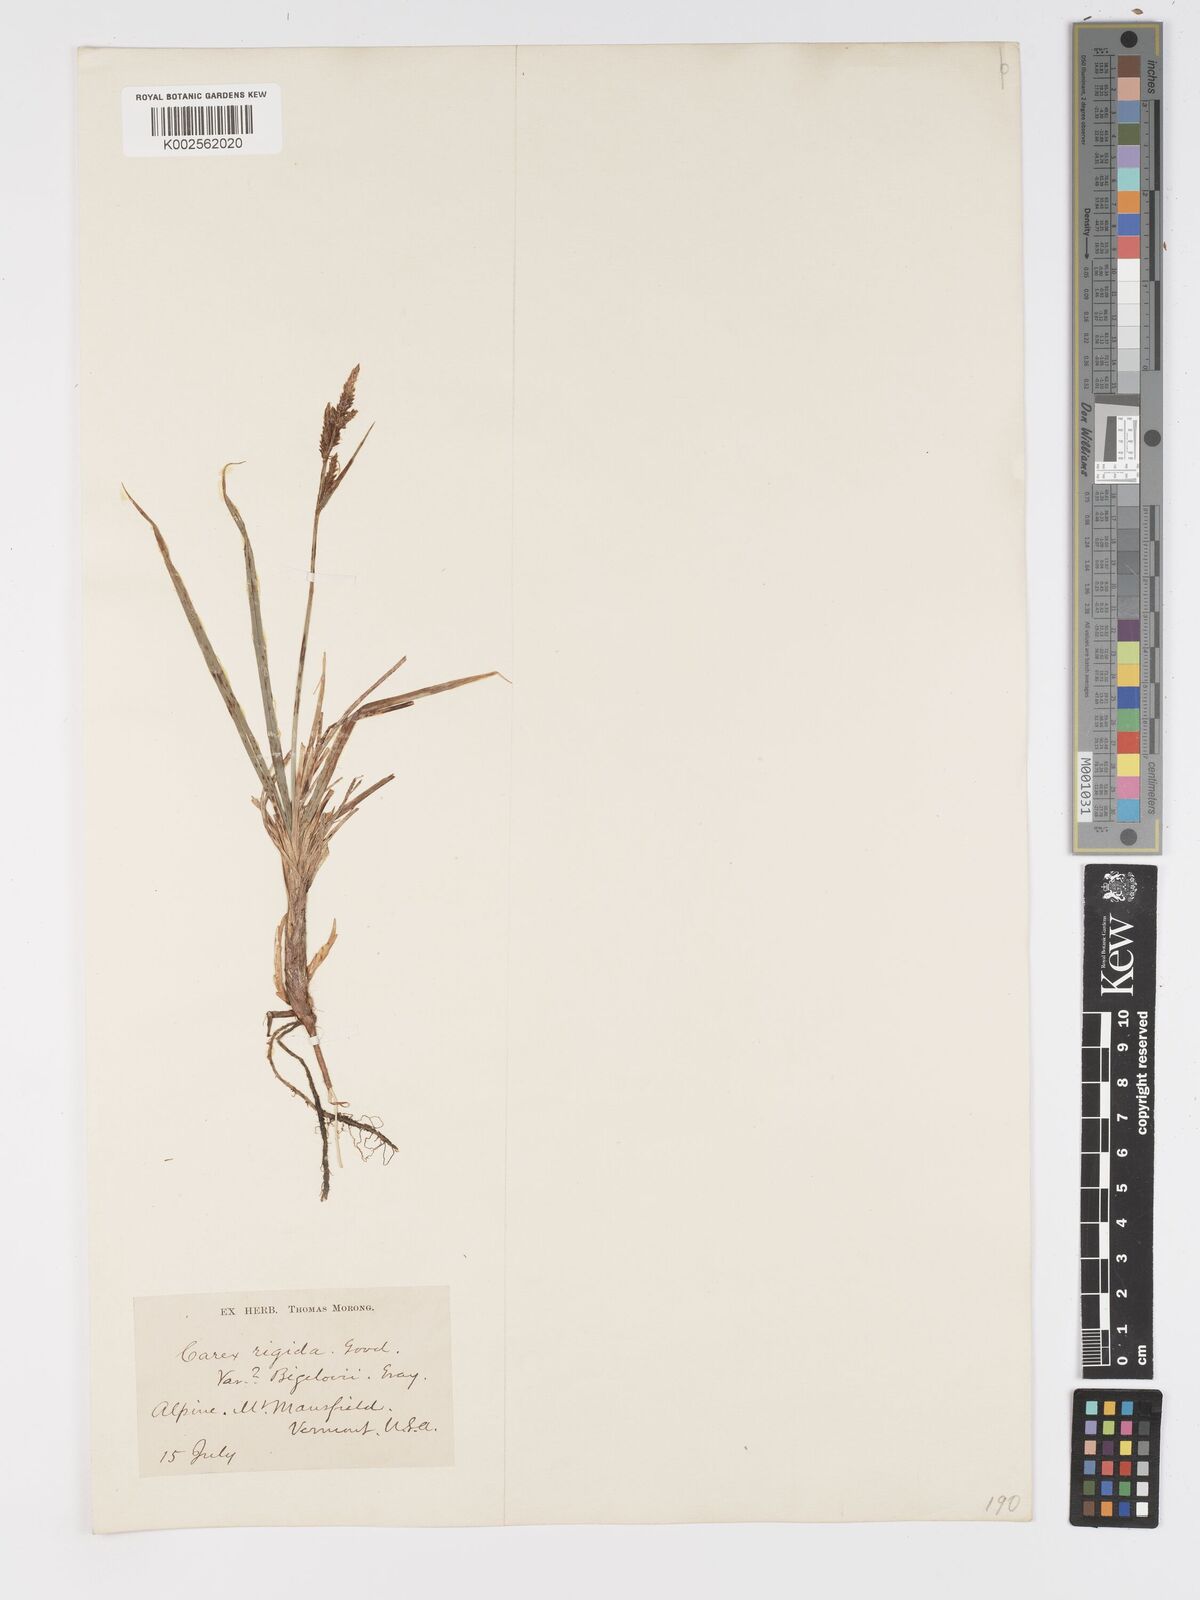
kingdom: Plantae
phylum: Tracheophyta
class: Liliopsida
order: Poales
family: Cyperaceae
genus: Carex
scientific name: Carex bigelowii
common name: Stiff sedge
